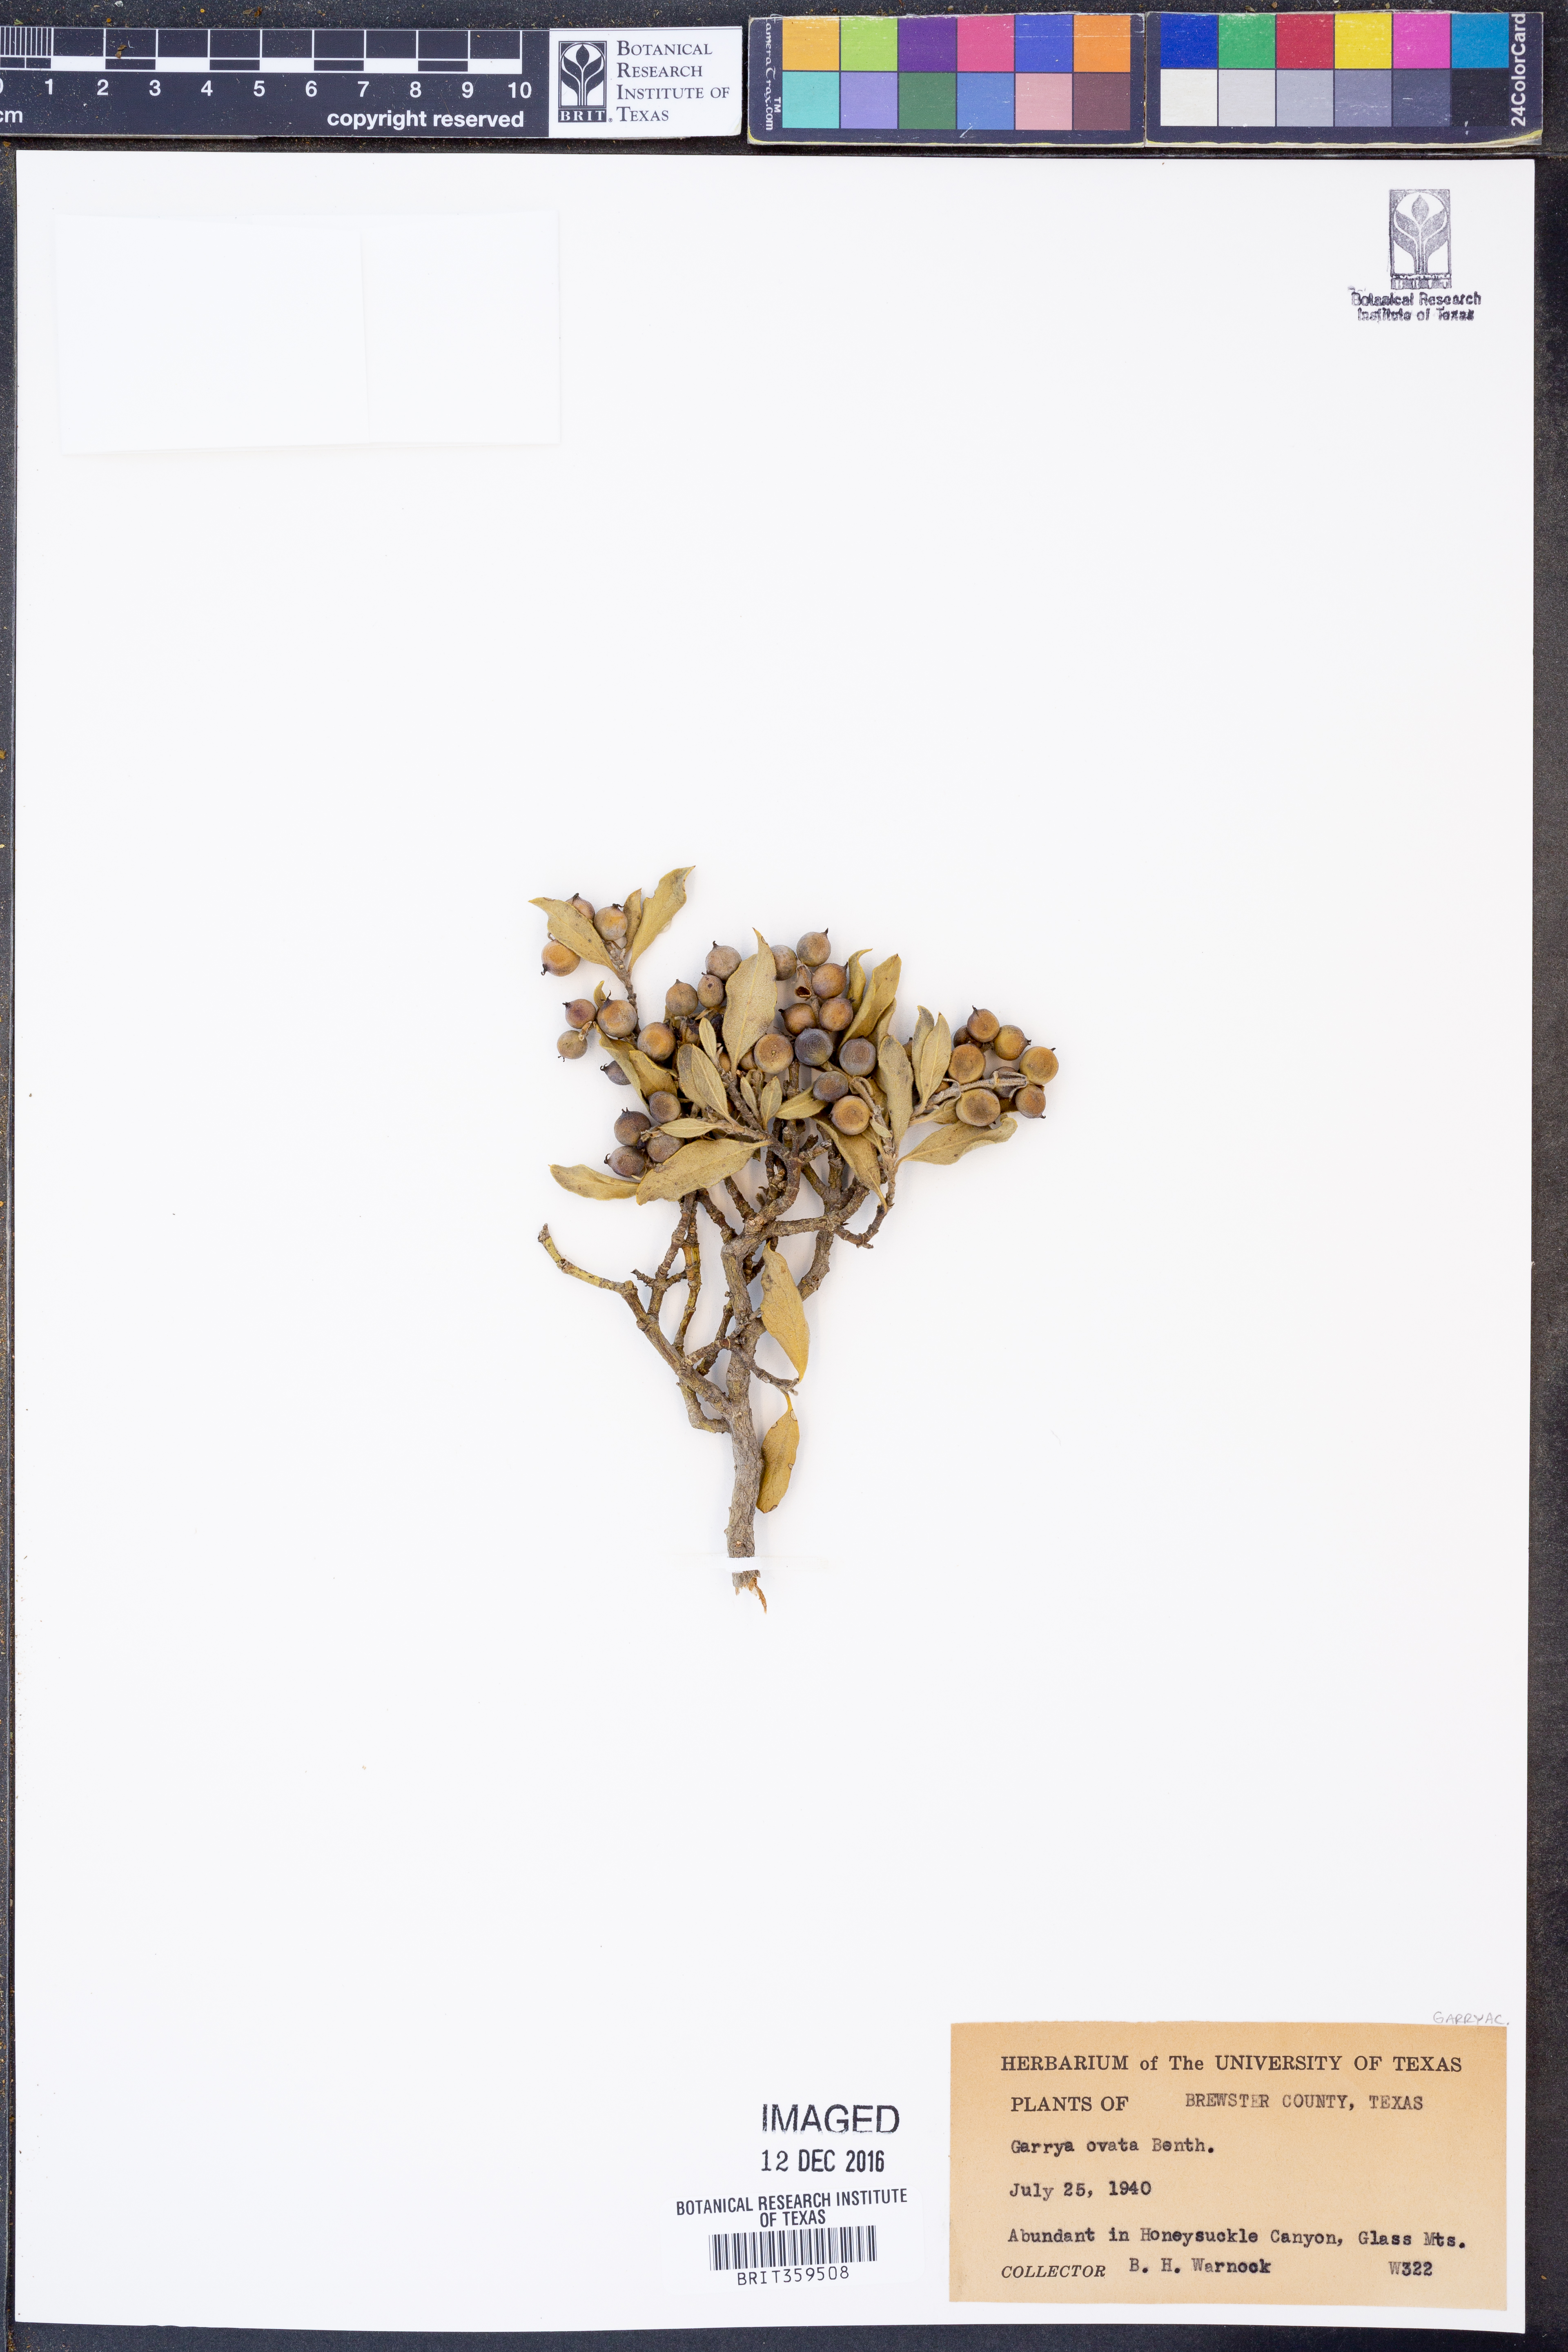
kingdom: Plantae
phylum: Tracheophyta
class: Magnoliopsida
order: Garryales
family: Garryaceae
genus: Garrya
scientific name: Garrya ovata
